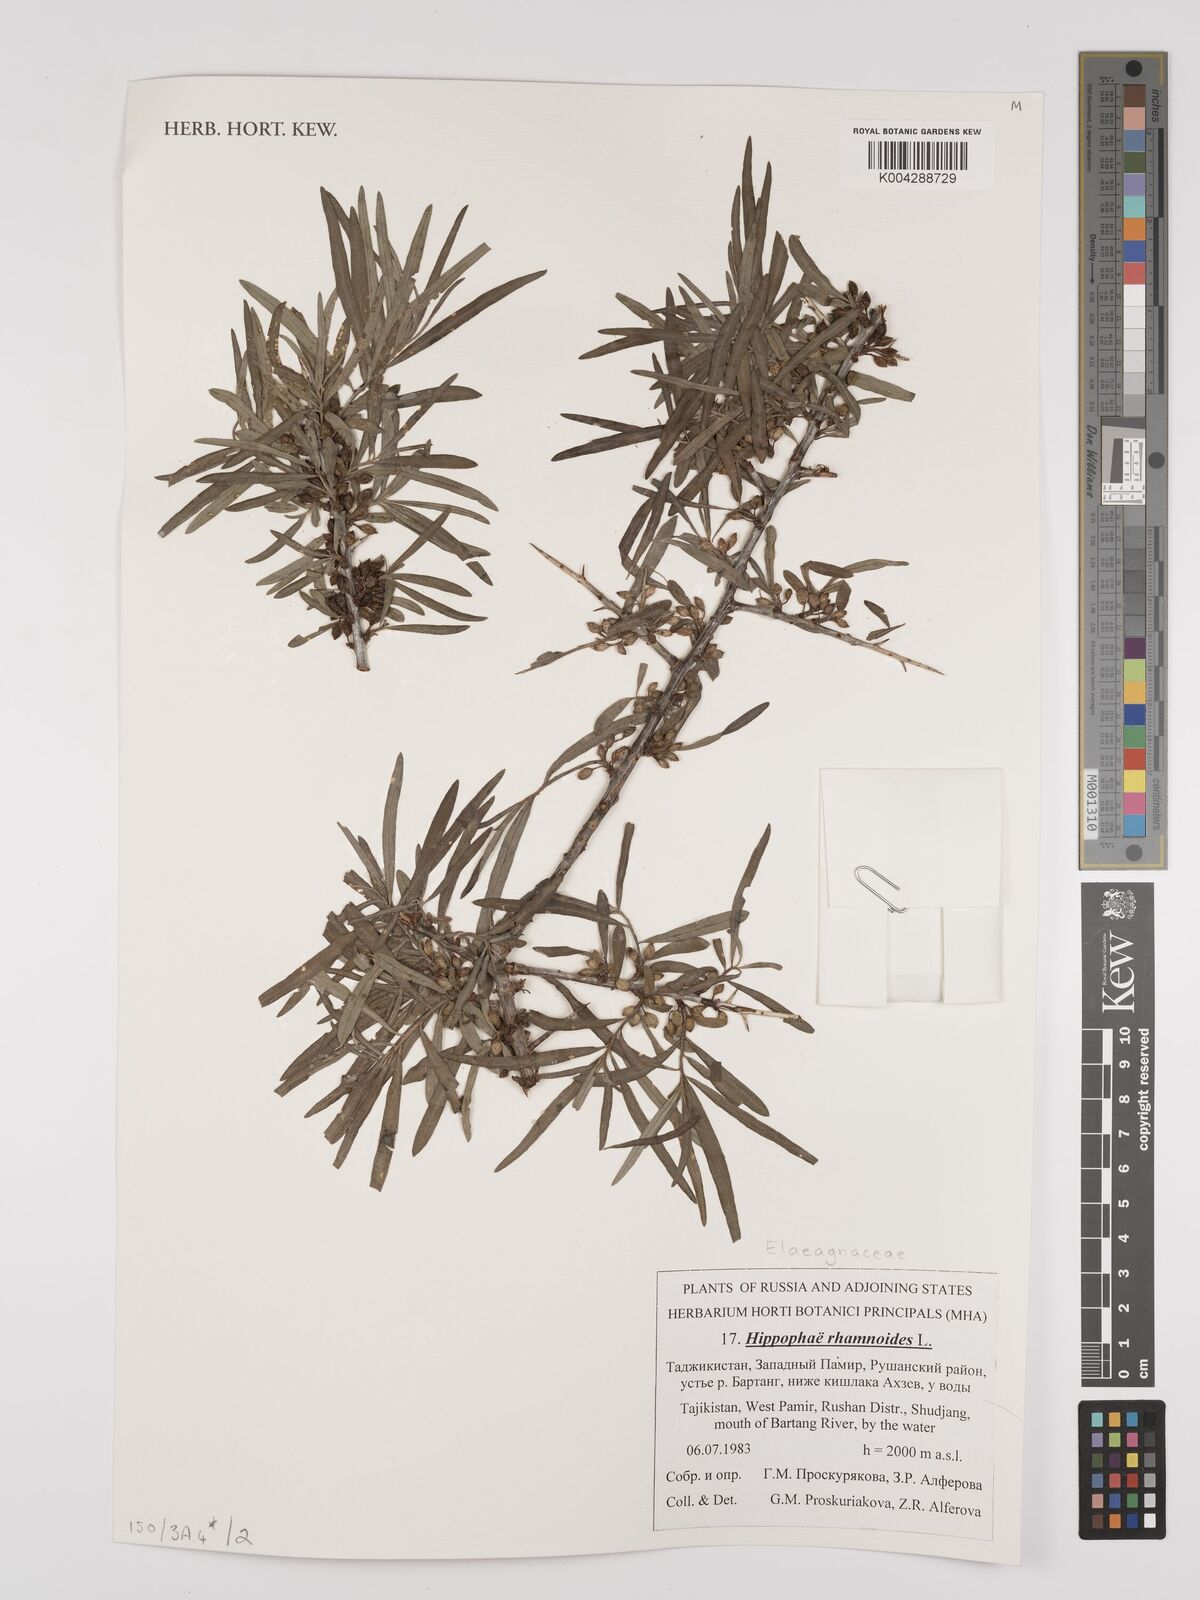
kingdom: Plantae
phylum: Tracheophyta
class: Magnoliopsida
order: Rosales
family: Elaeagnaceae
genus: Hippophae
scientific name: Hippophae rhamnoides
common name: Sea-buckthorn
